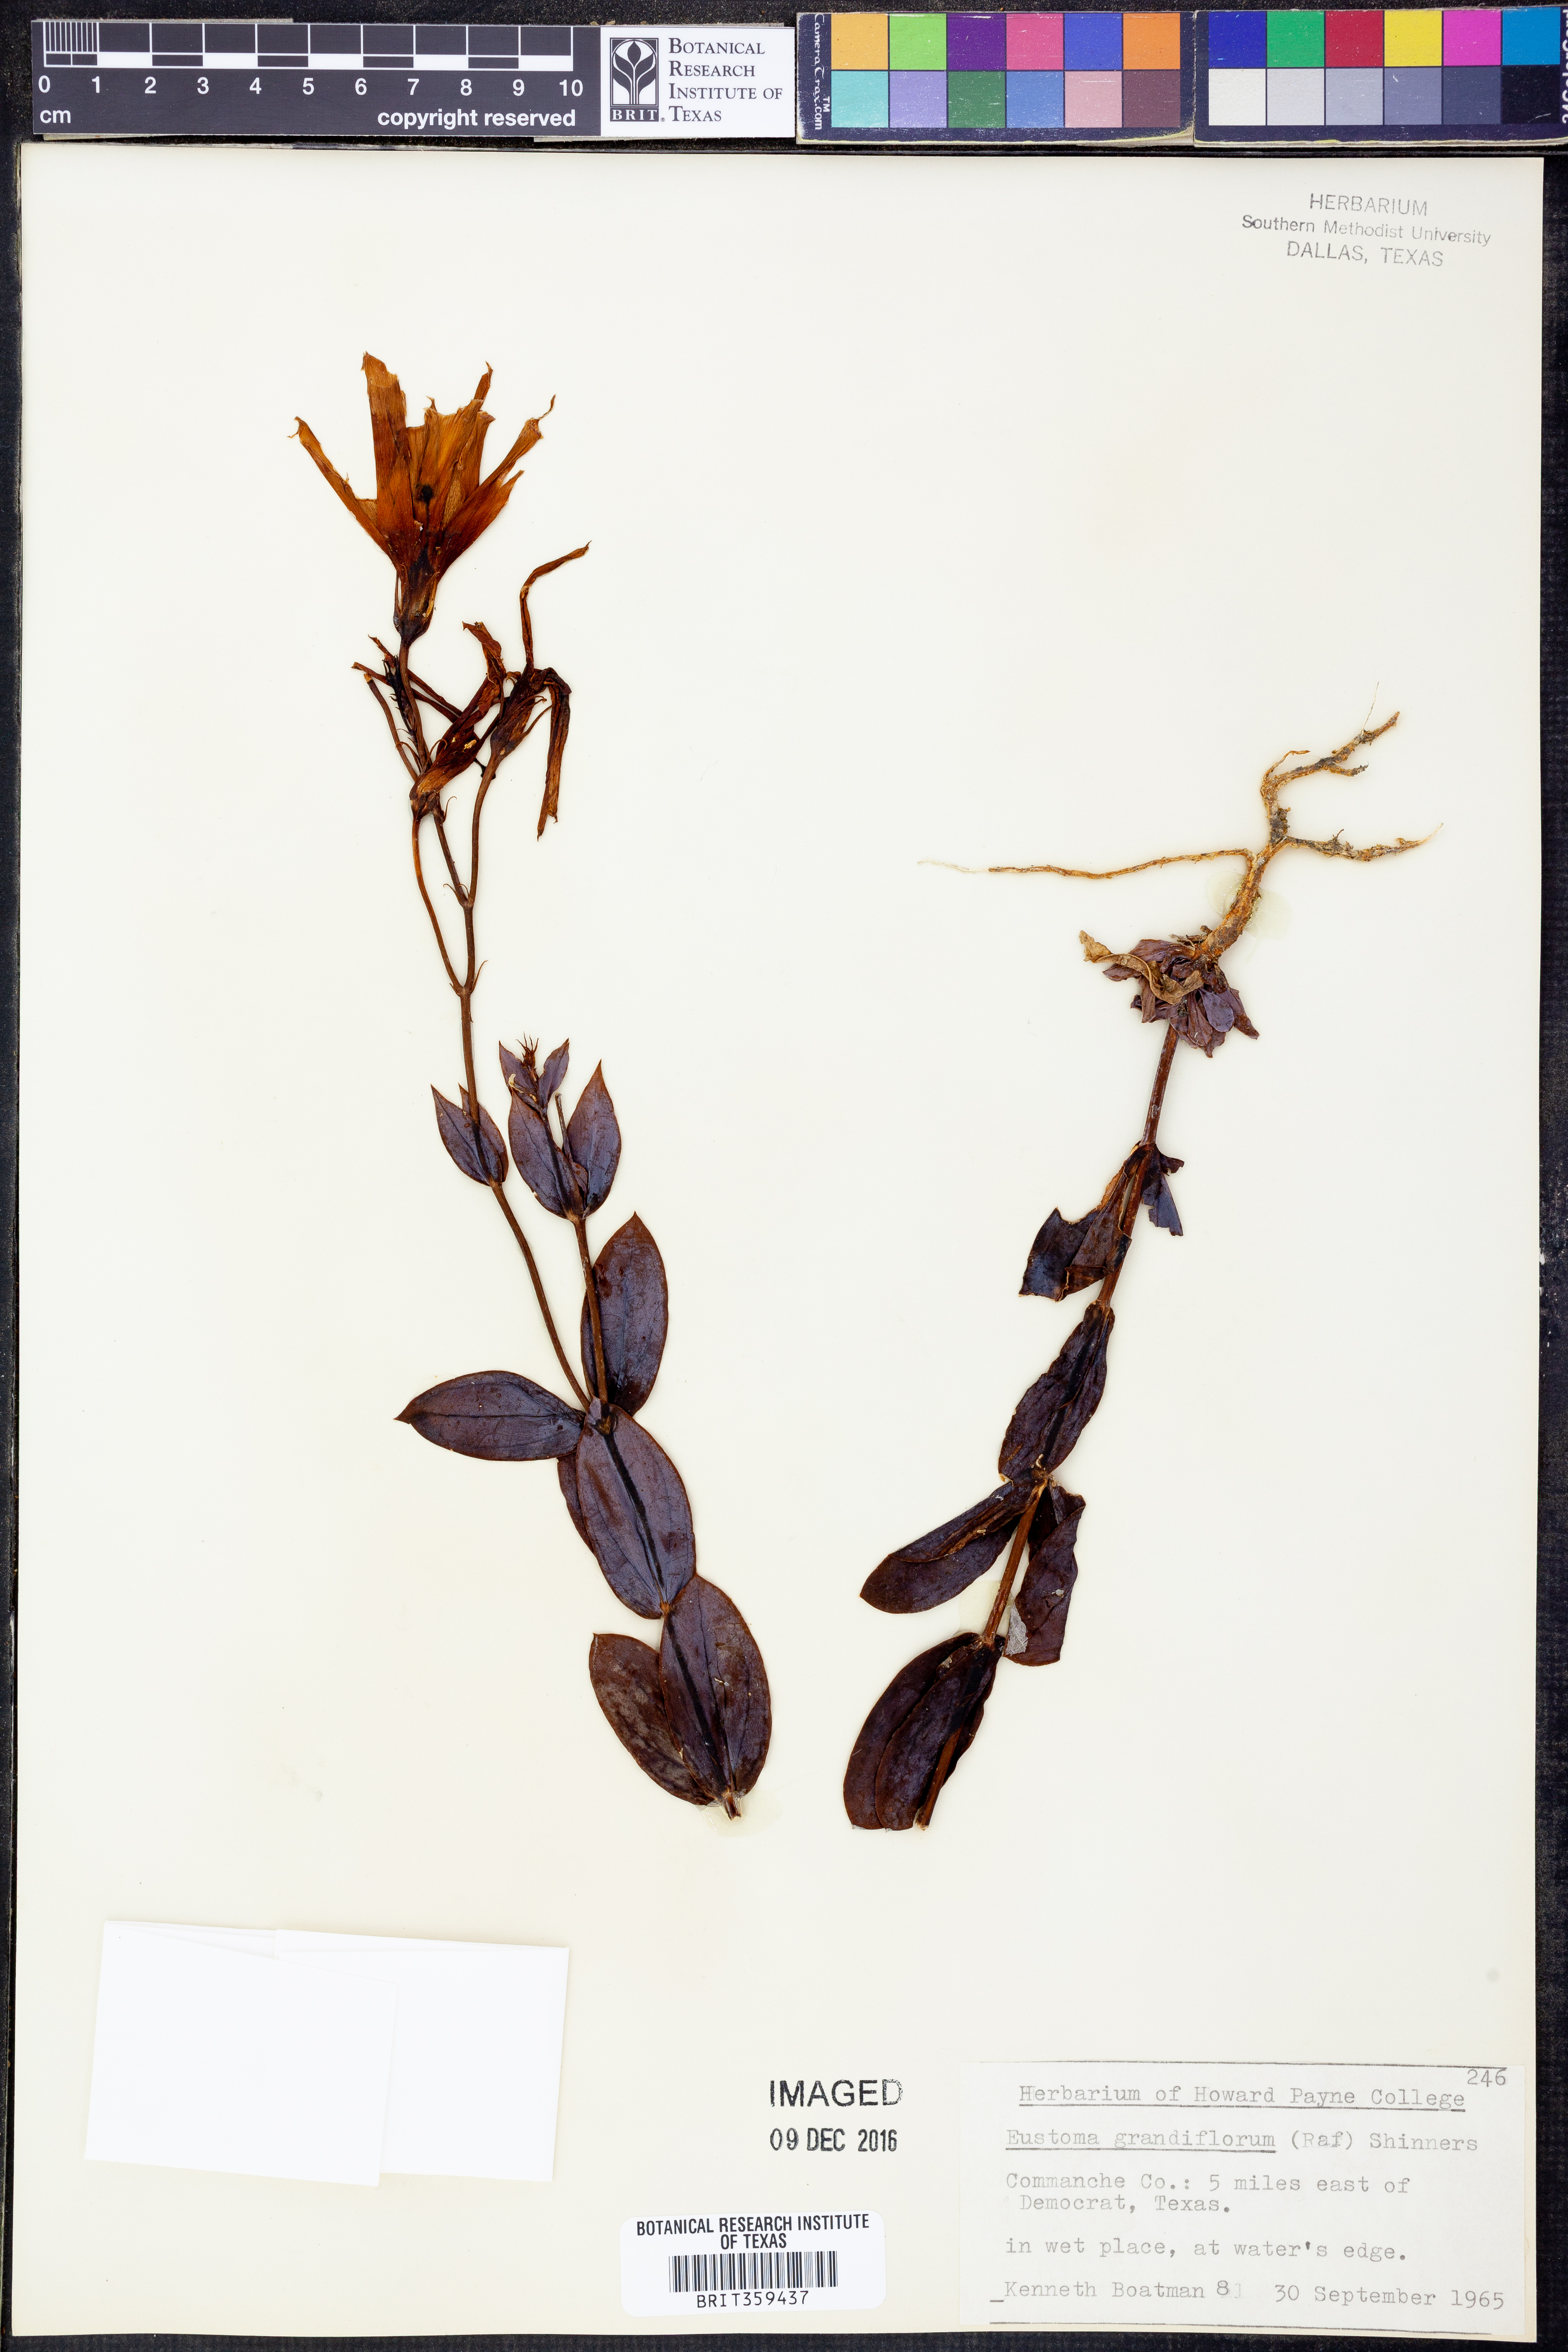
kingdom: Plantae
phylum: Tracheophyta
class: Magnoliopsida
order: Gentianales
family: Gentianaceae
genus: Eustoma
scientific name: Eustoma russellianum
